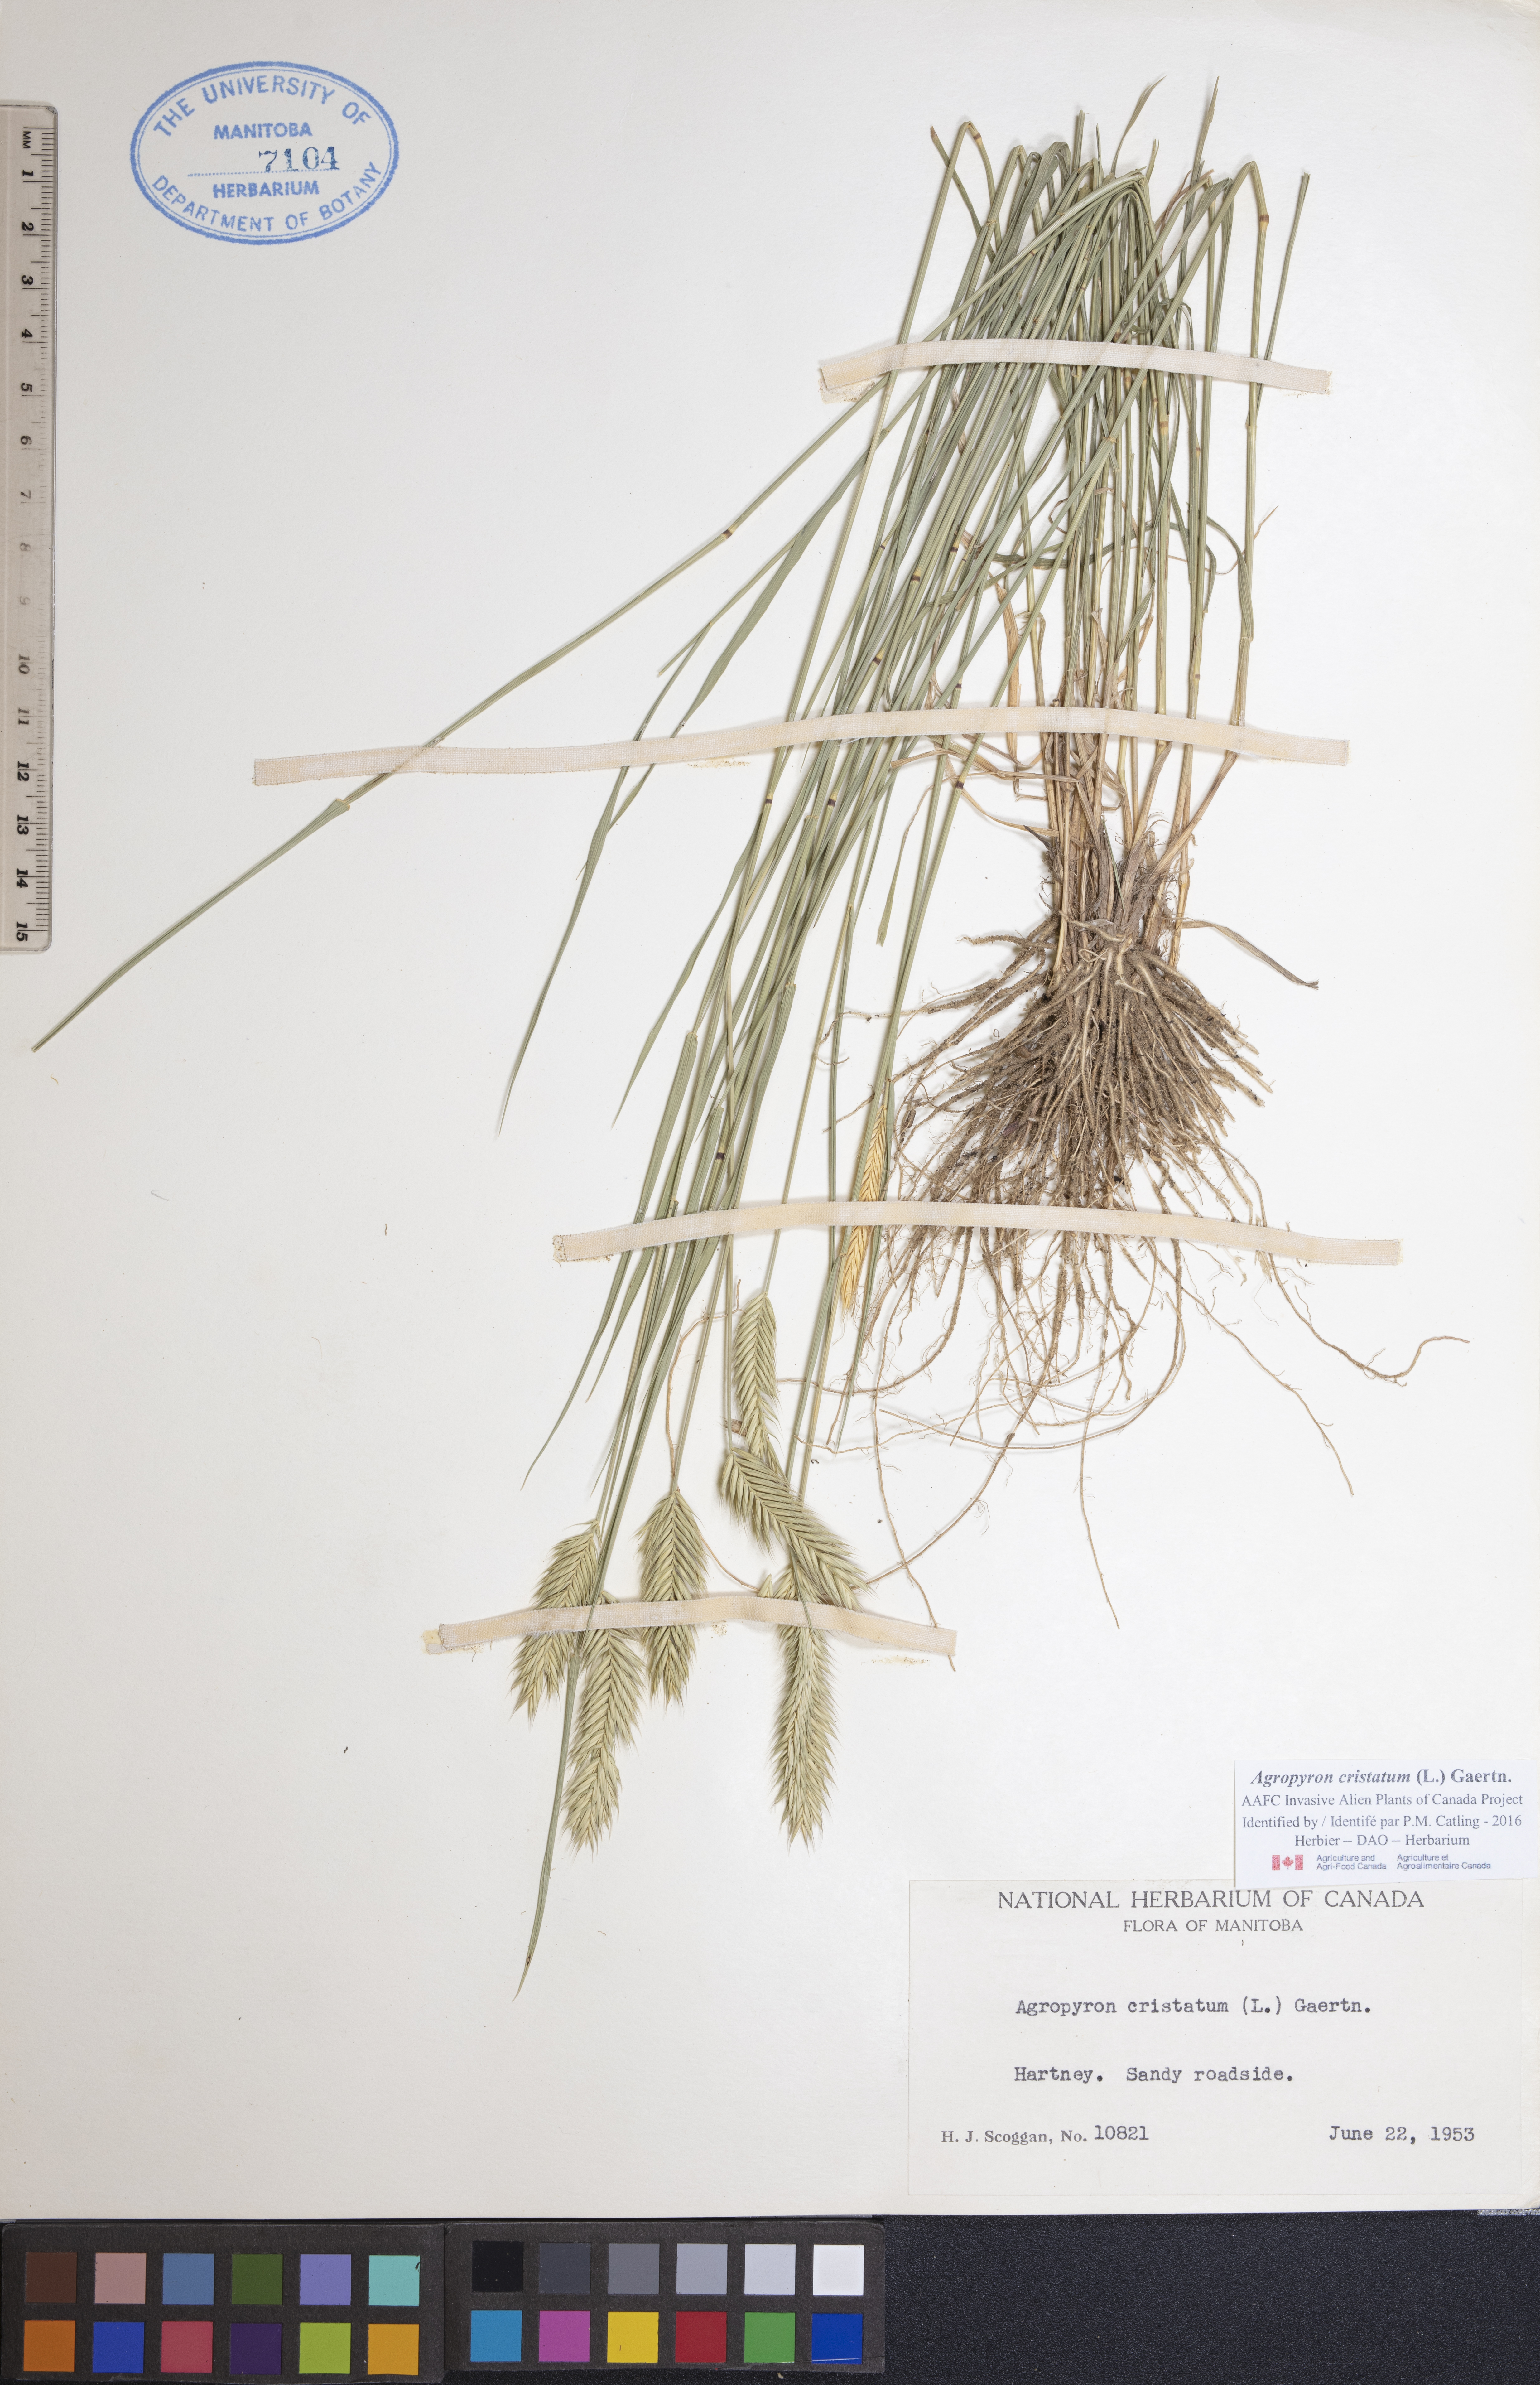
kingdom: Plantae
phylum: Tracheophyta
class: Liliopsida
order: Poales
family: Poaceae
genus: Agropyron
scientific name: Agropyron cristatum
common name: Crested wheatgrass
